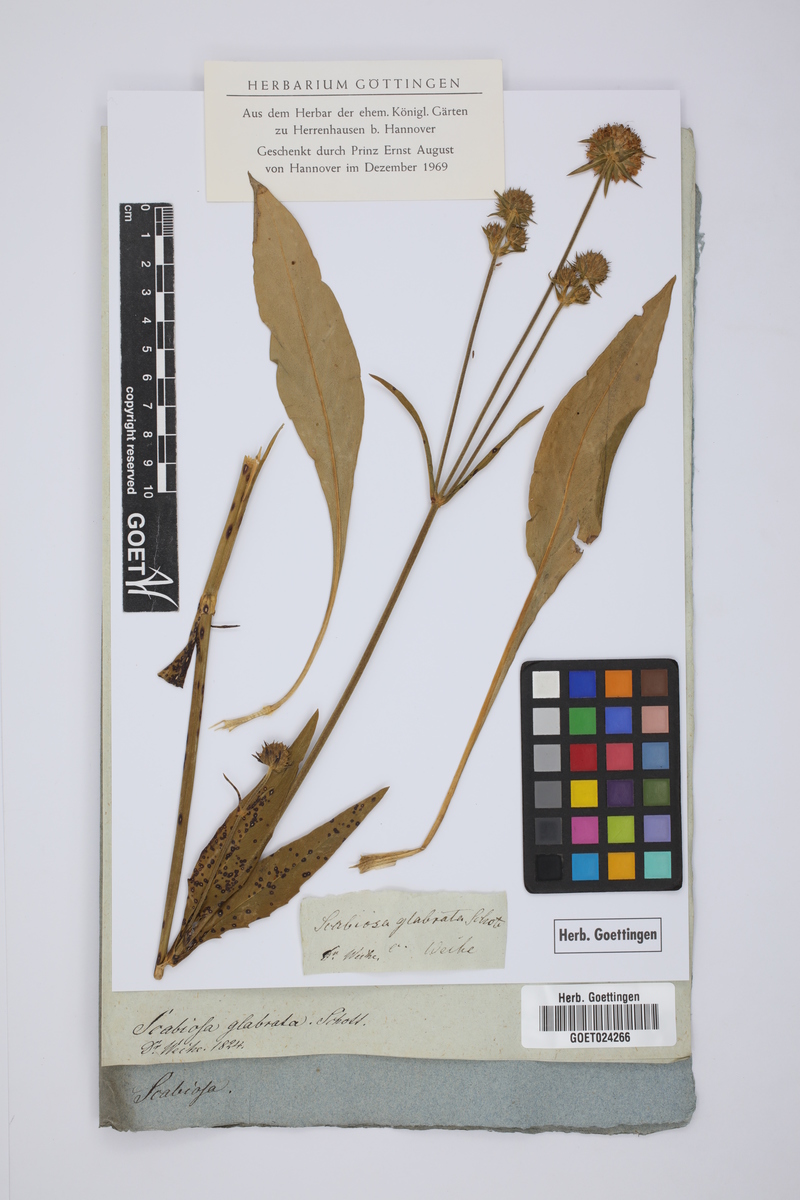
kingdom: Plantae
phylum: Tracheophyta
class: Magnoliopsida
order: Dipsacales
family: Caprifoliaceae
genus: Succisa
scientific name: Succisa pratensis
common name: Devil's-bit
